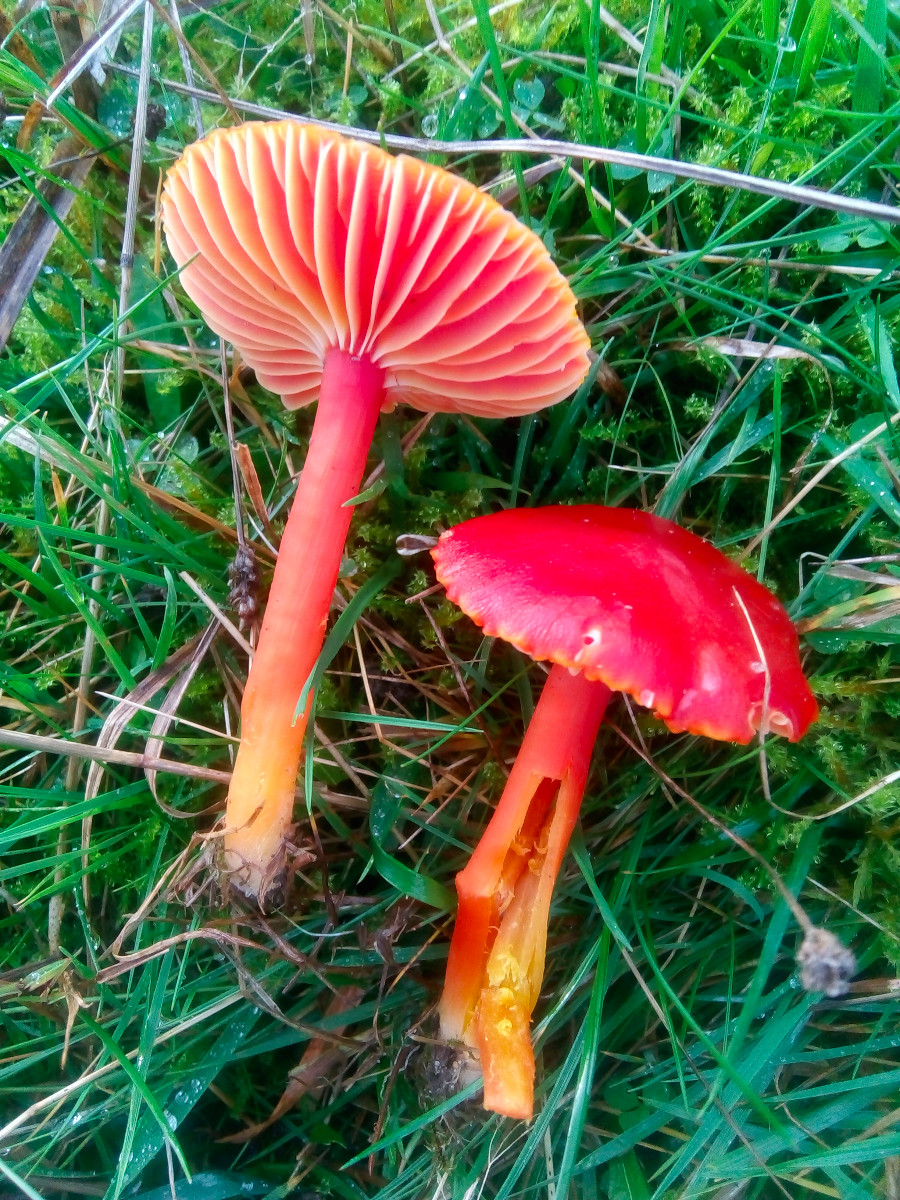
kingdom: Fungi
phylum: Basidiomycota
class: Agaricomycetes
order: Agaricales
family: Hygrophoraceae
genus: Hygrocybe
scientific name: Hygrocybe coccinea
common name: cinnober-vokshat
